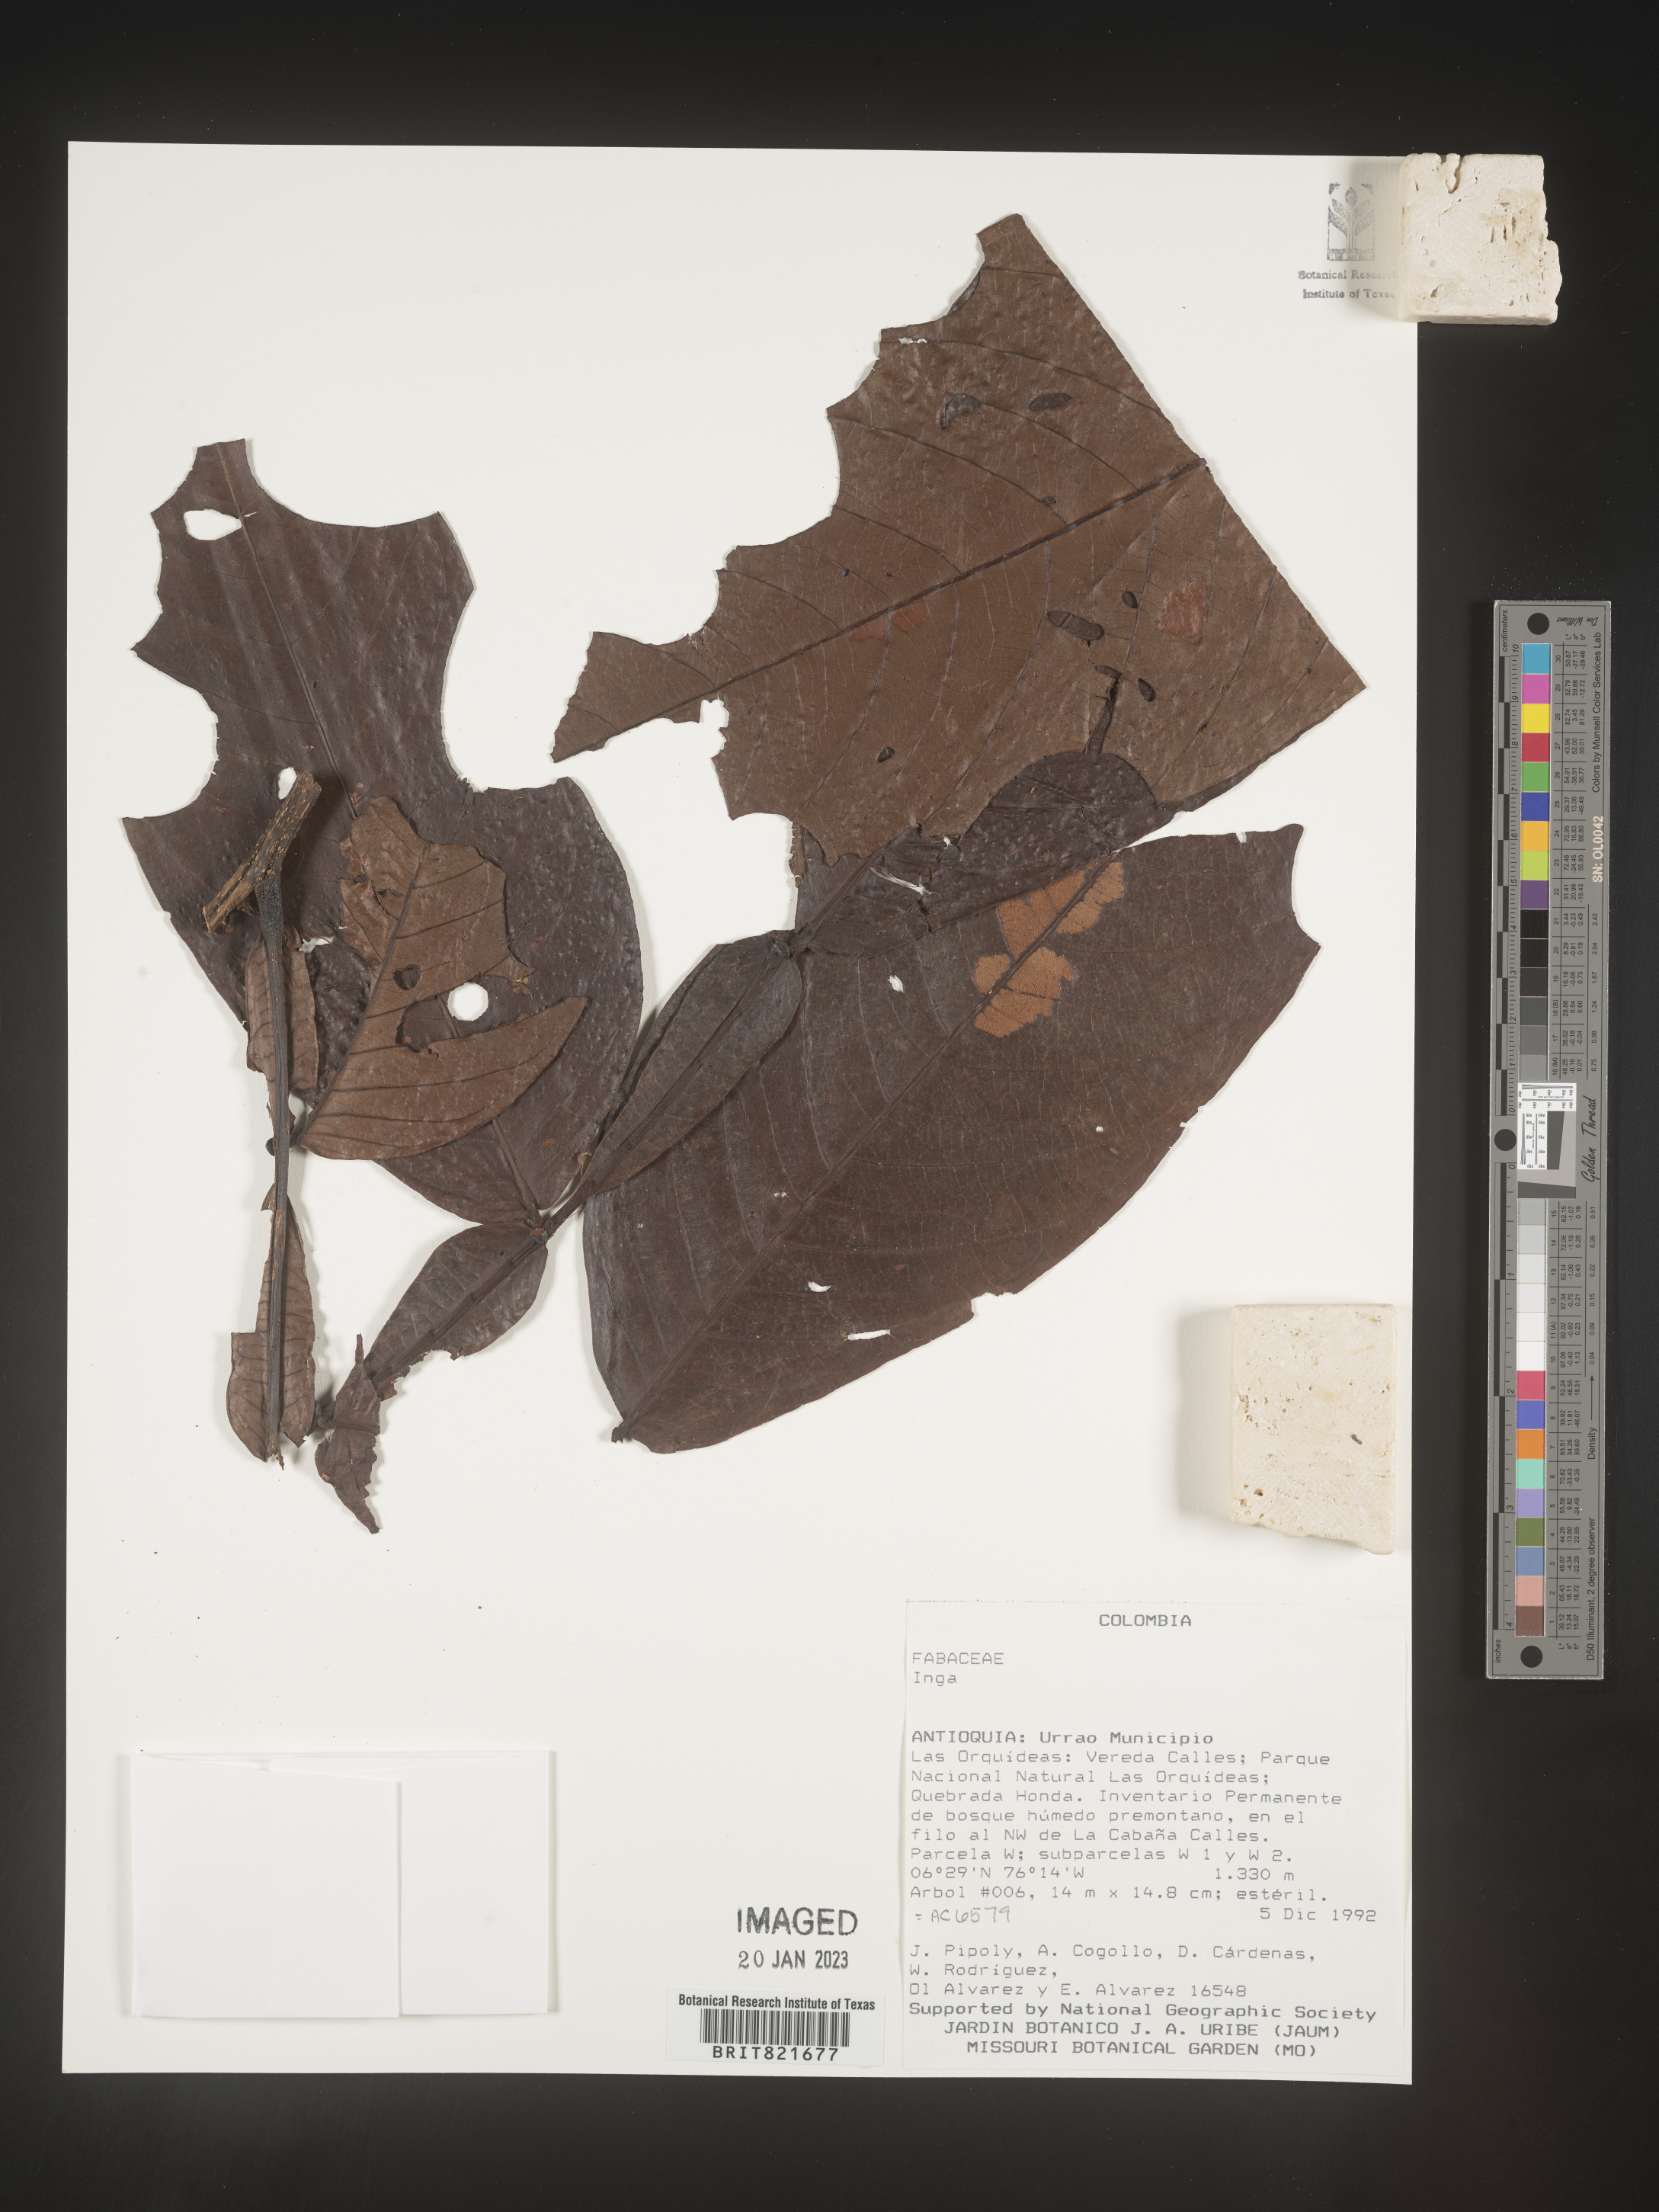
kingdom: Plantae
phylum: Tracheophyta
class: Magnoliopsida
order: Fabales
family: Fabaceae
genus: Inga
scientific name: Inga
